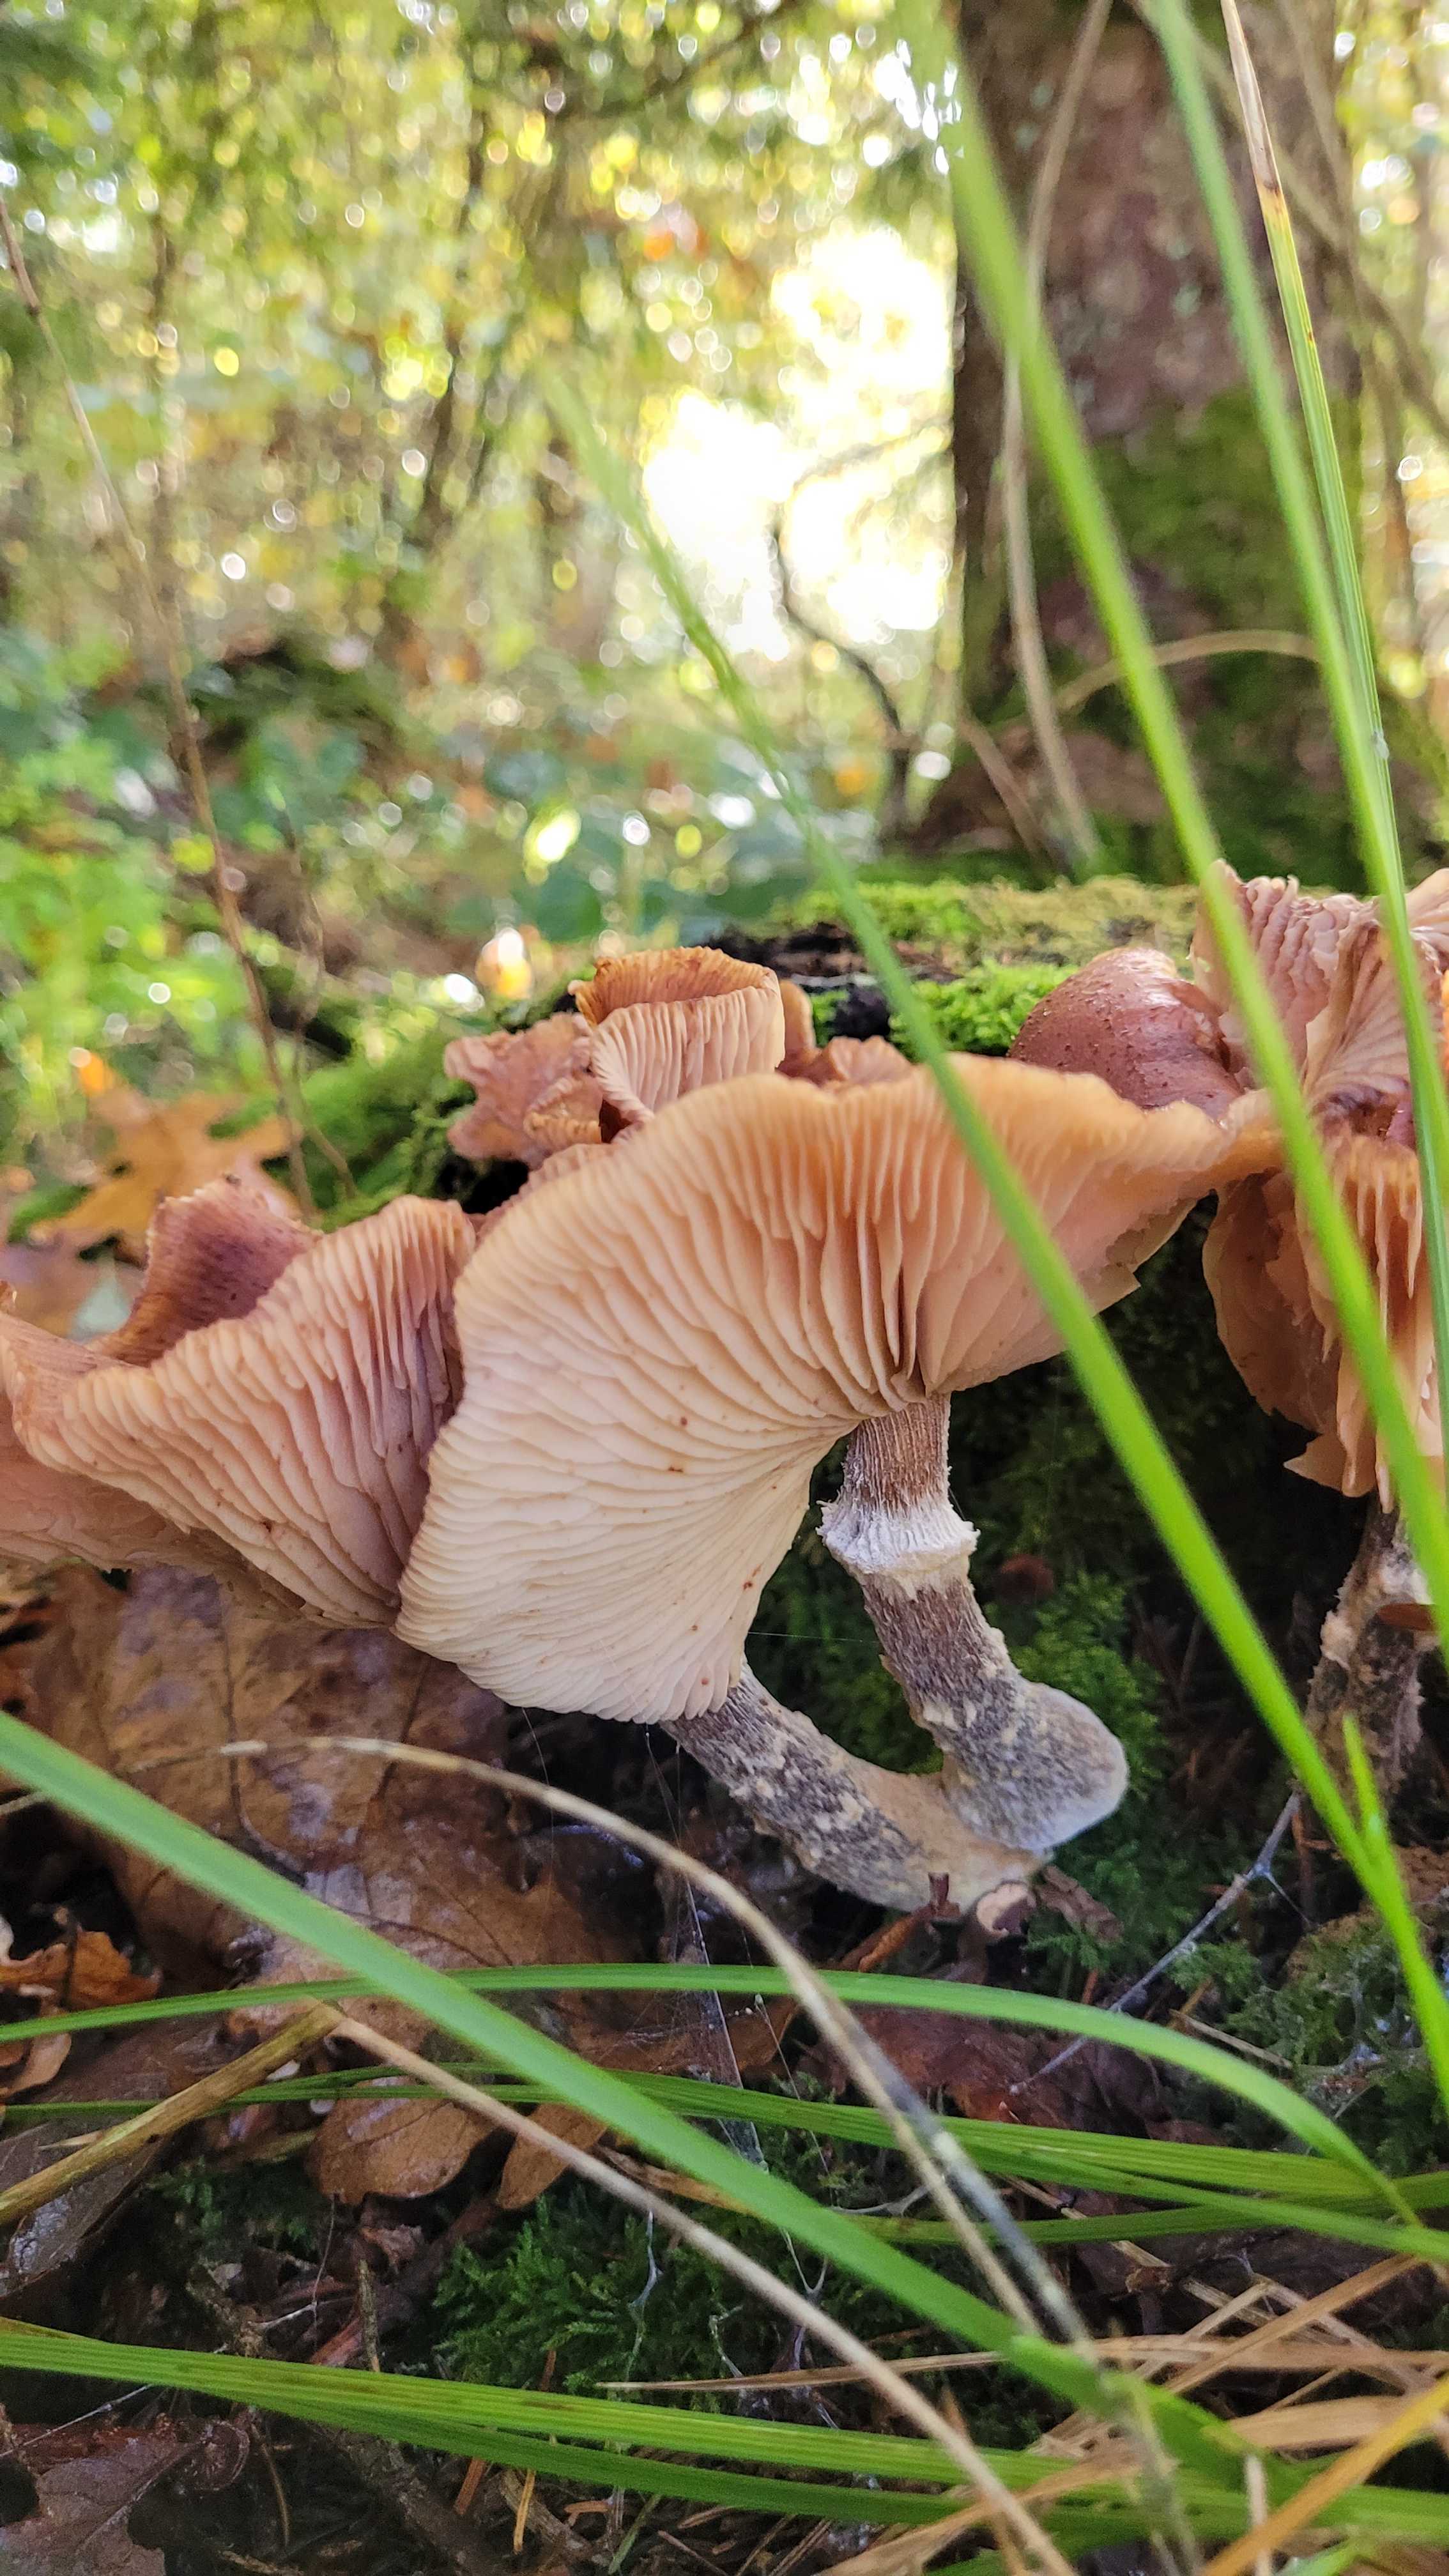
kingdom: Fungi
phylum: Basidiomycota
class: Agaricomycetes
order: Agaricales
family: Physalacriaceae
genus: Armillaria
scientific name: Armillaria
